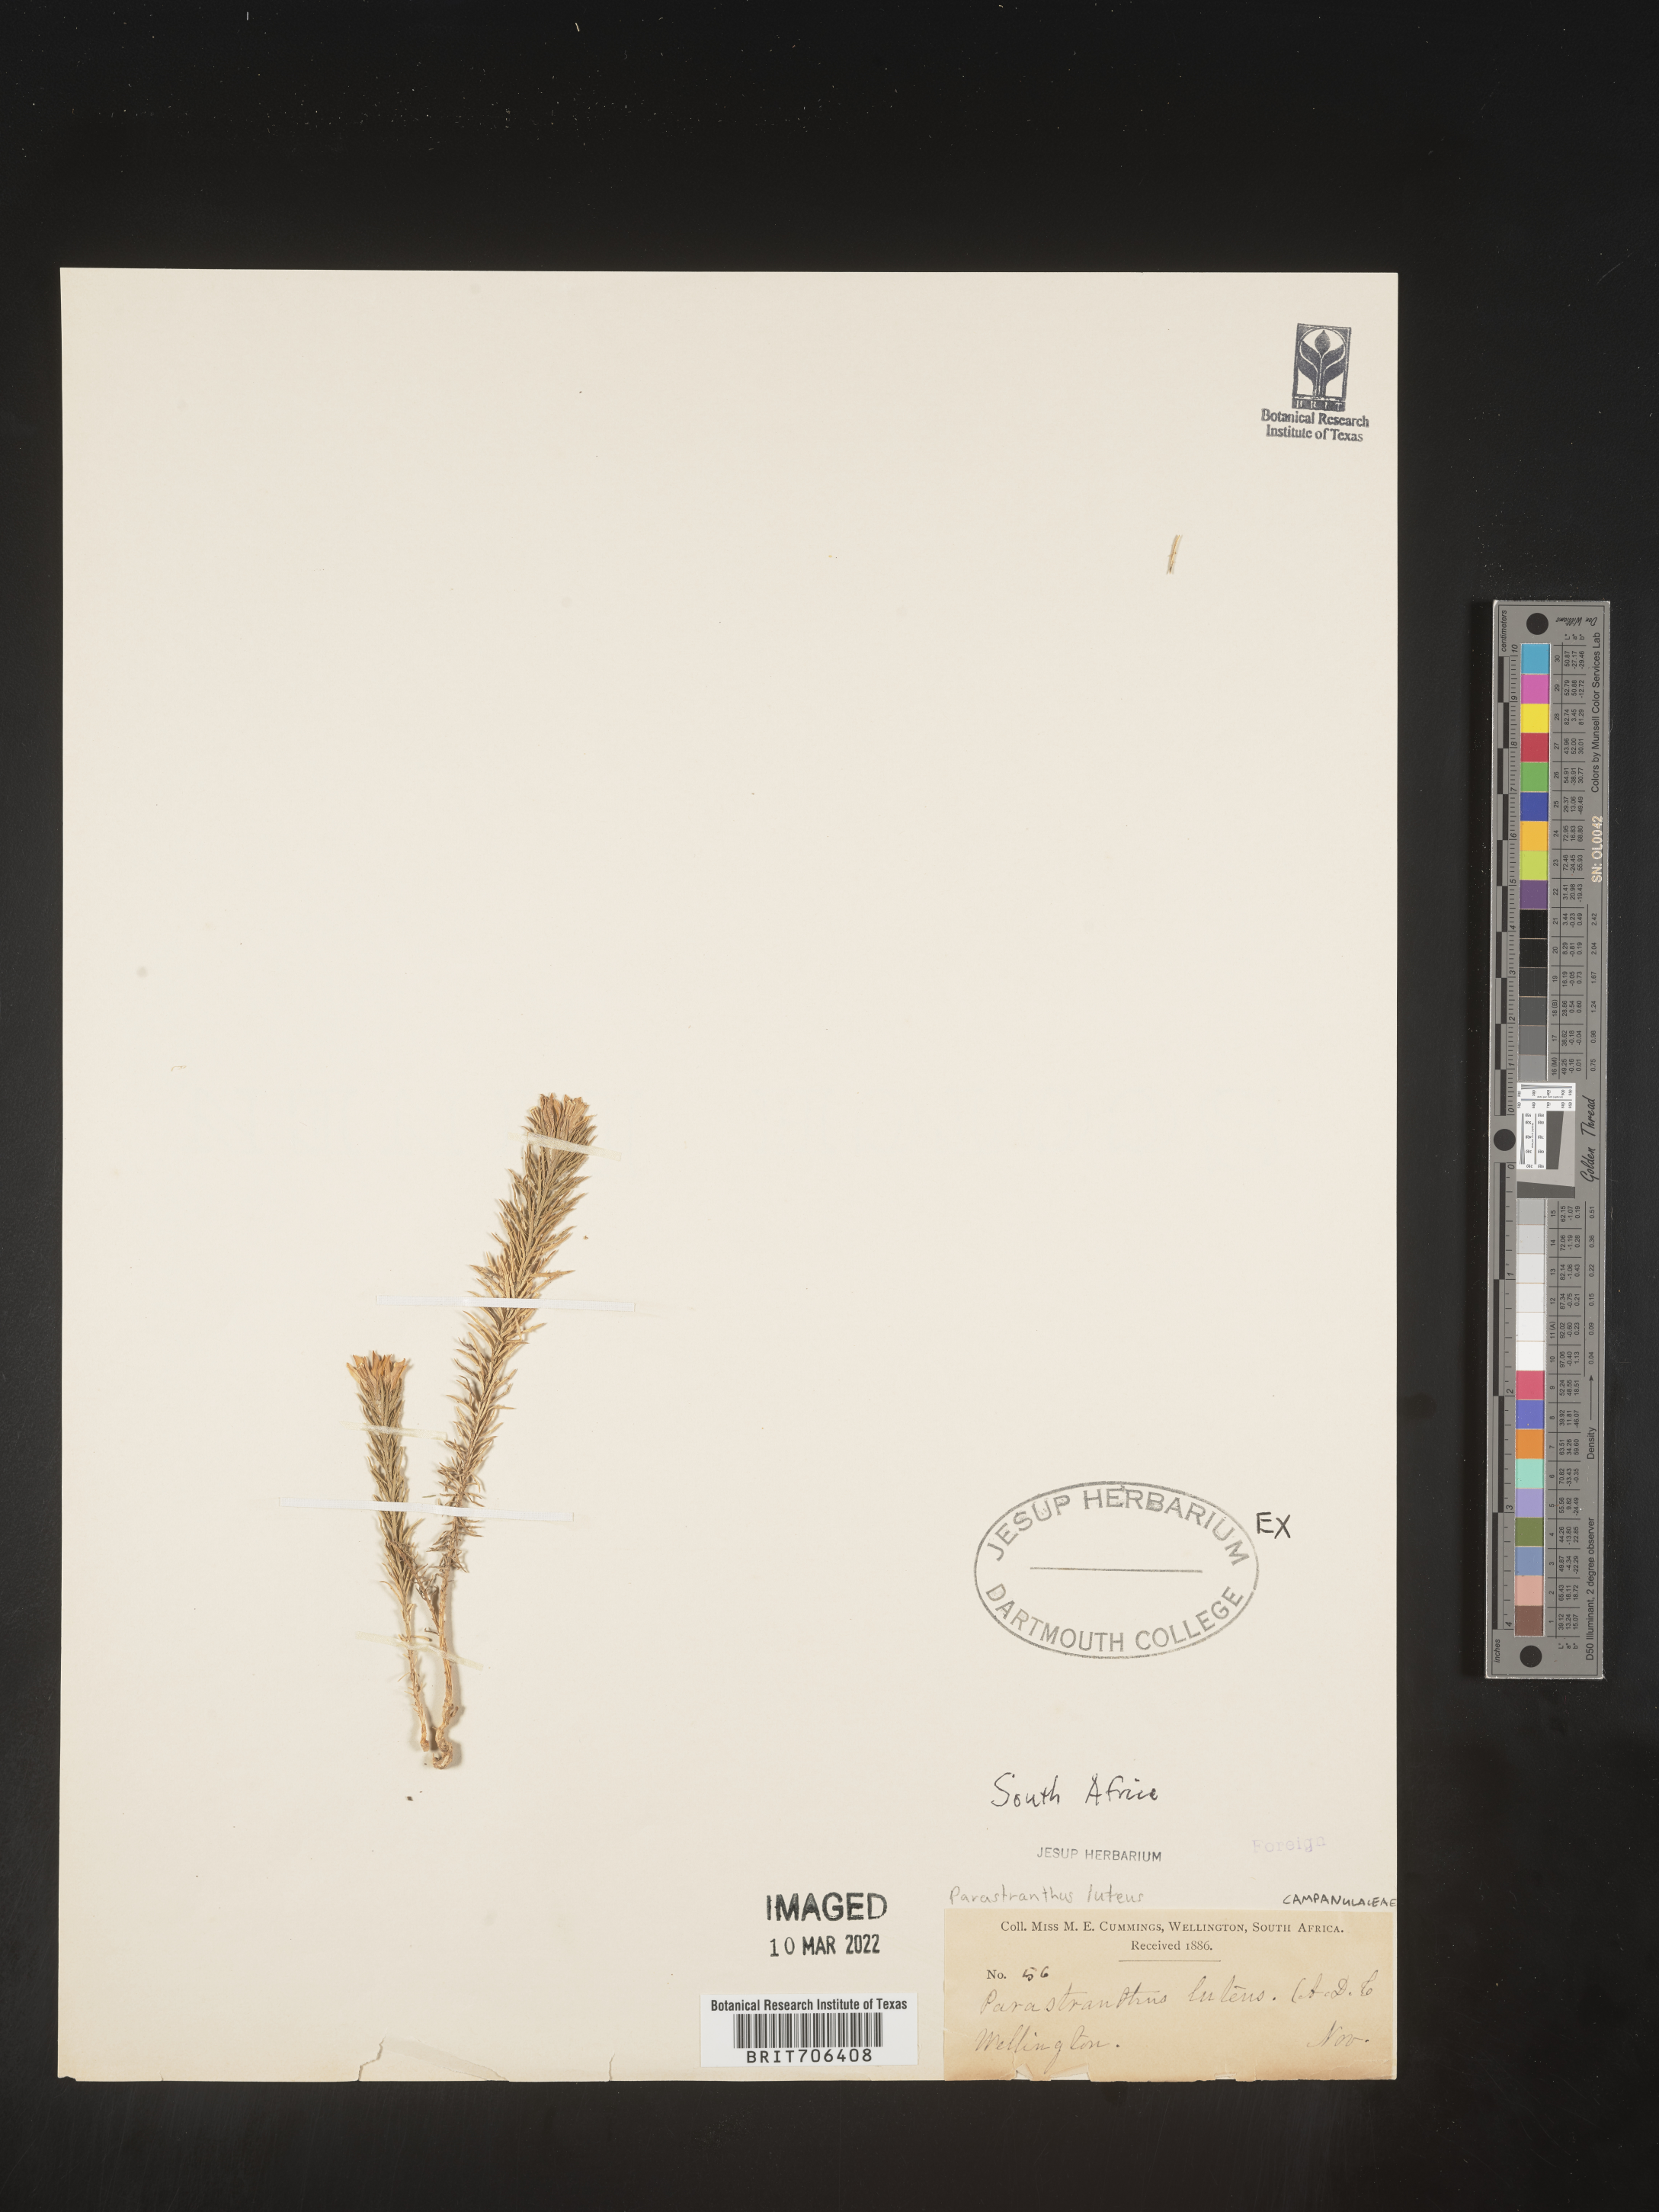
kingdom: Plantae
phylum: Tracheophyta
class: Magnoliopsida
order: Asterales
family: Campanulaceae
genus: Monopsis
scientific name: Monopsis
